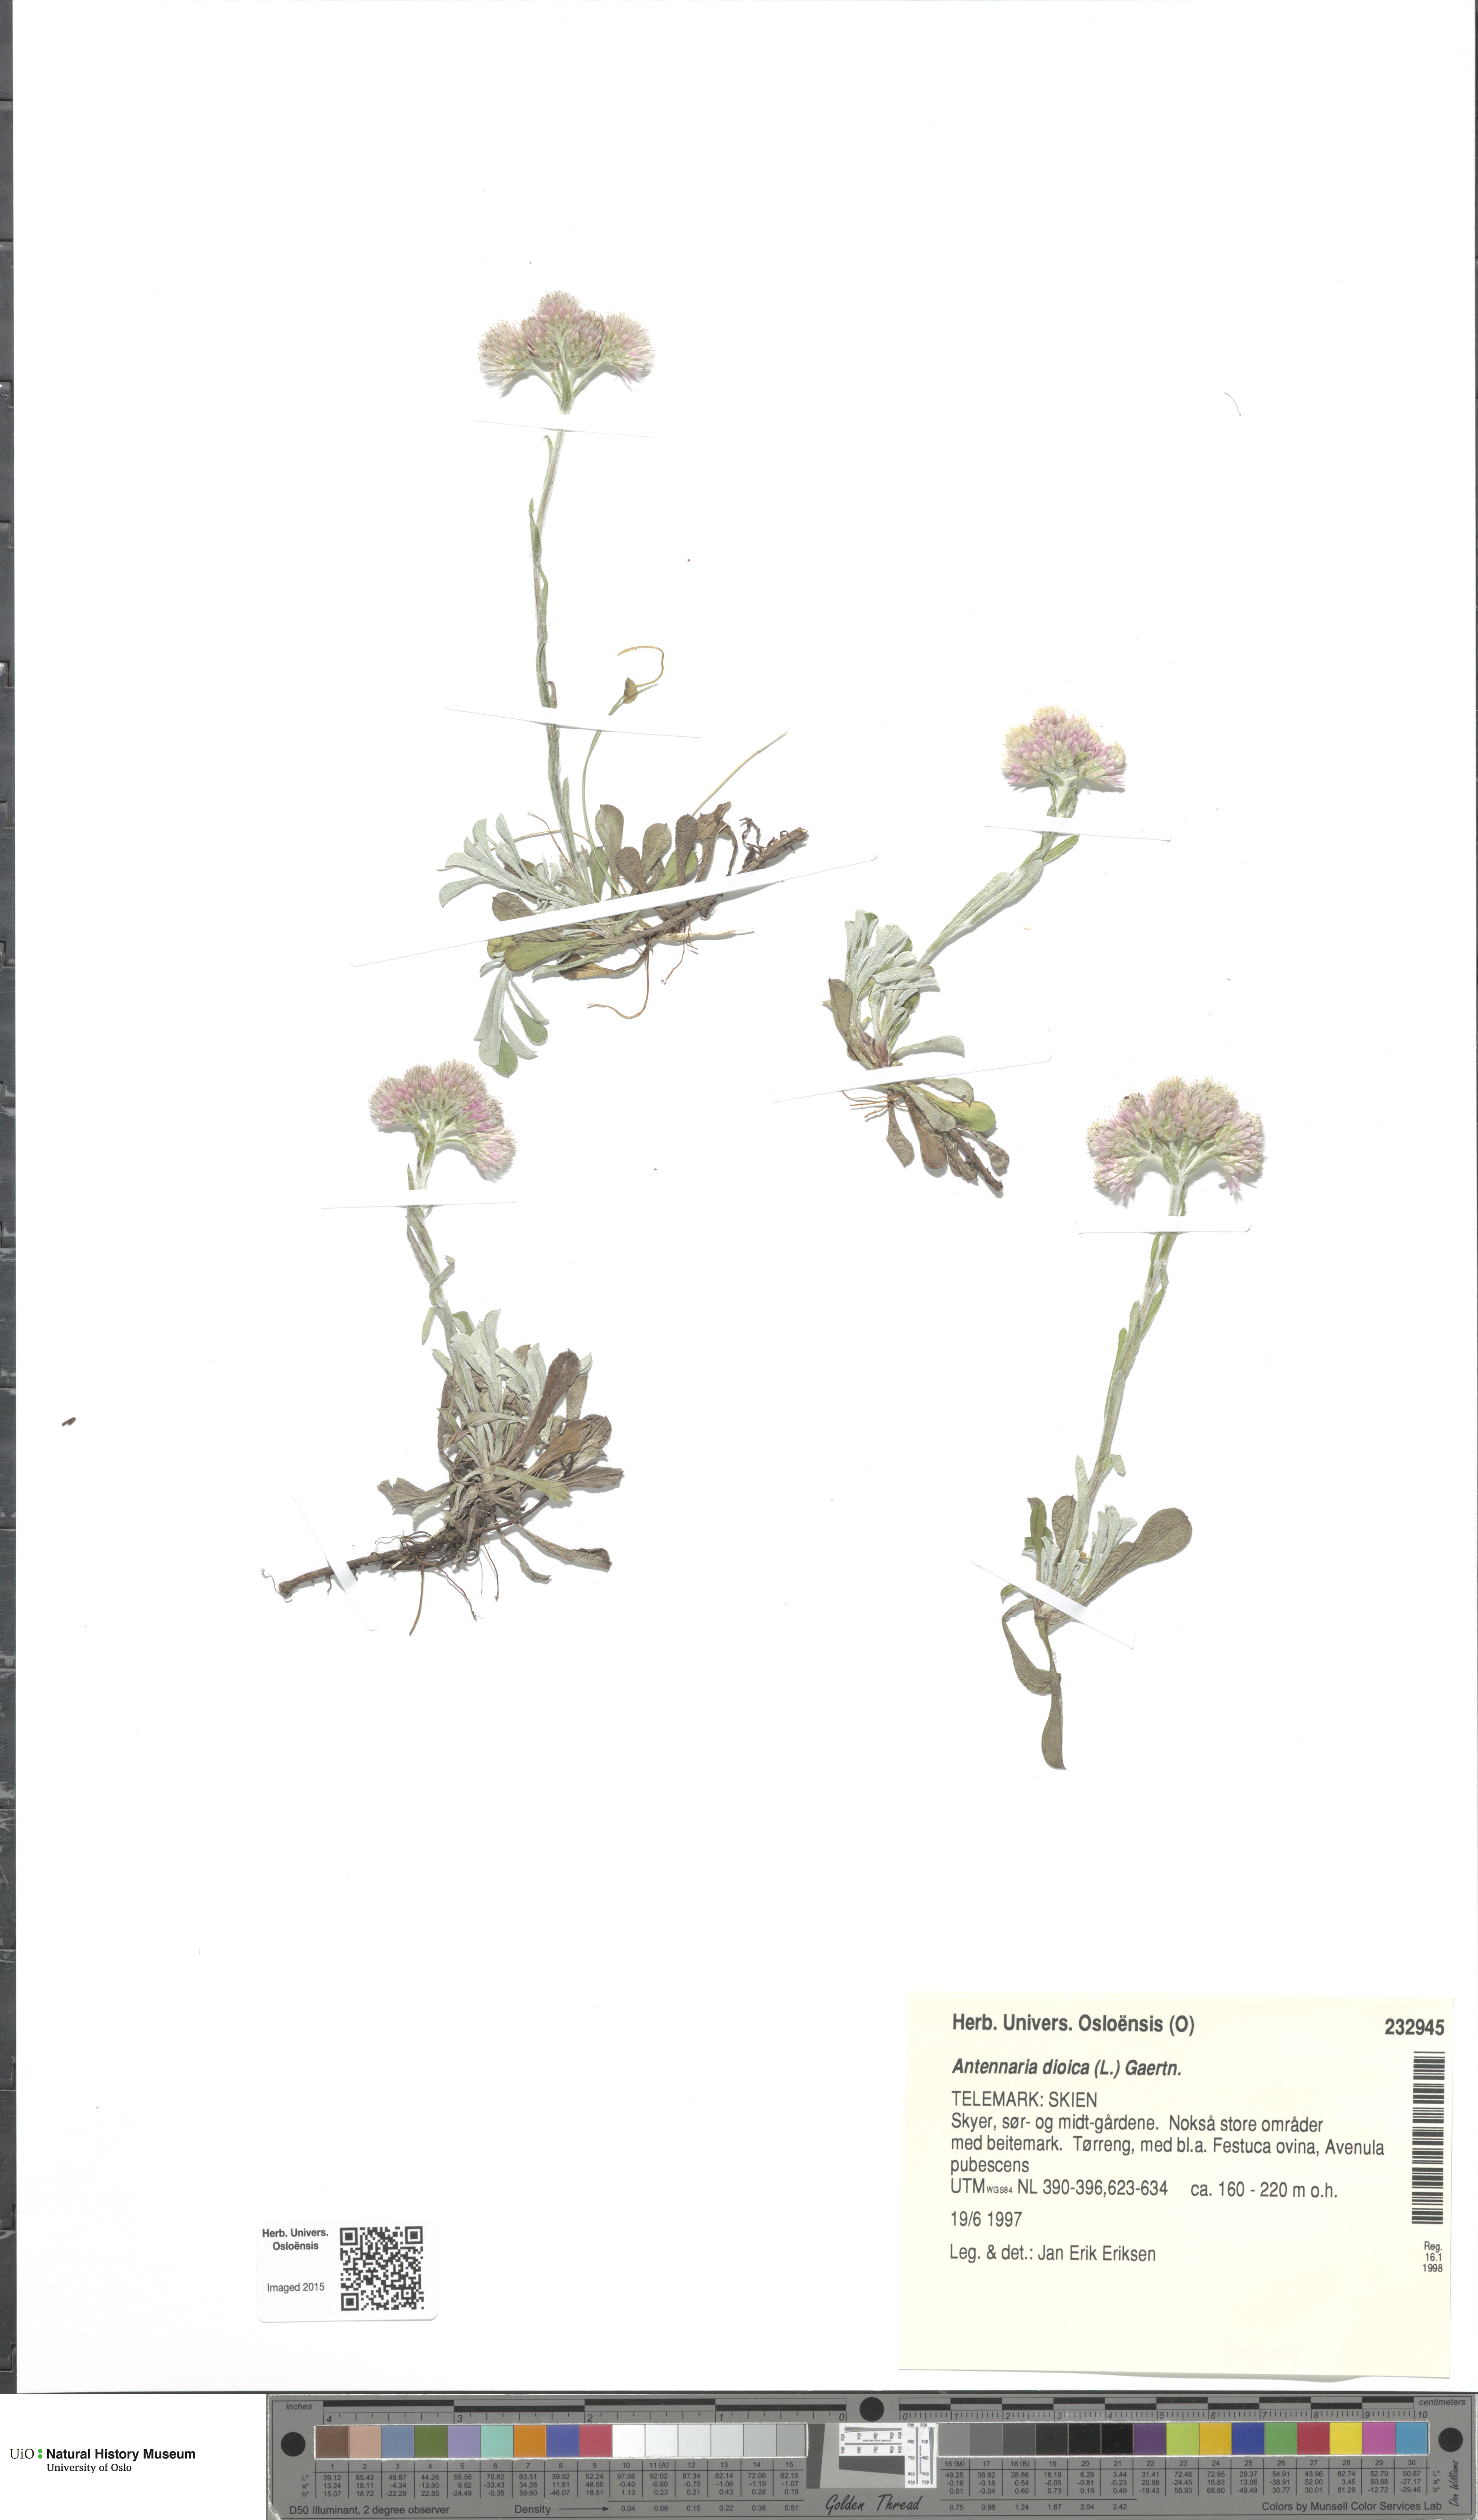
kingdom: Plantae
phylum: Tracheophyta
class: Magnoliopsida
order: Asterales
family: Asteraceae
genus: Antennaria
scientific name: Antennaria dioica
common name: Mountain everlasting
